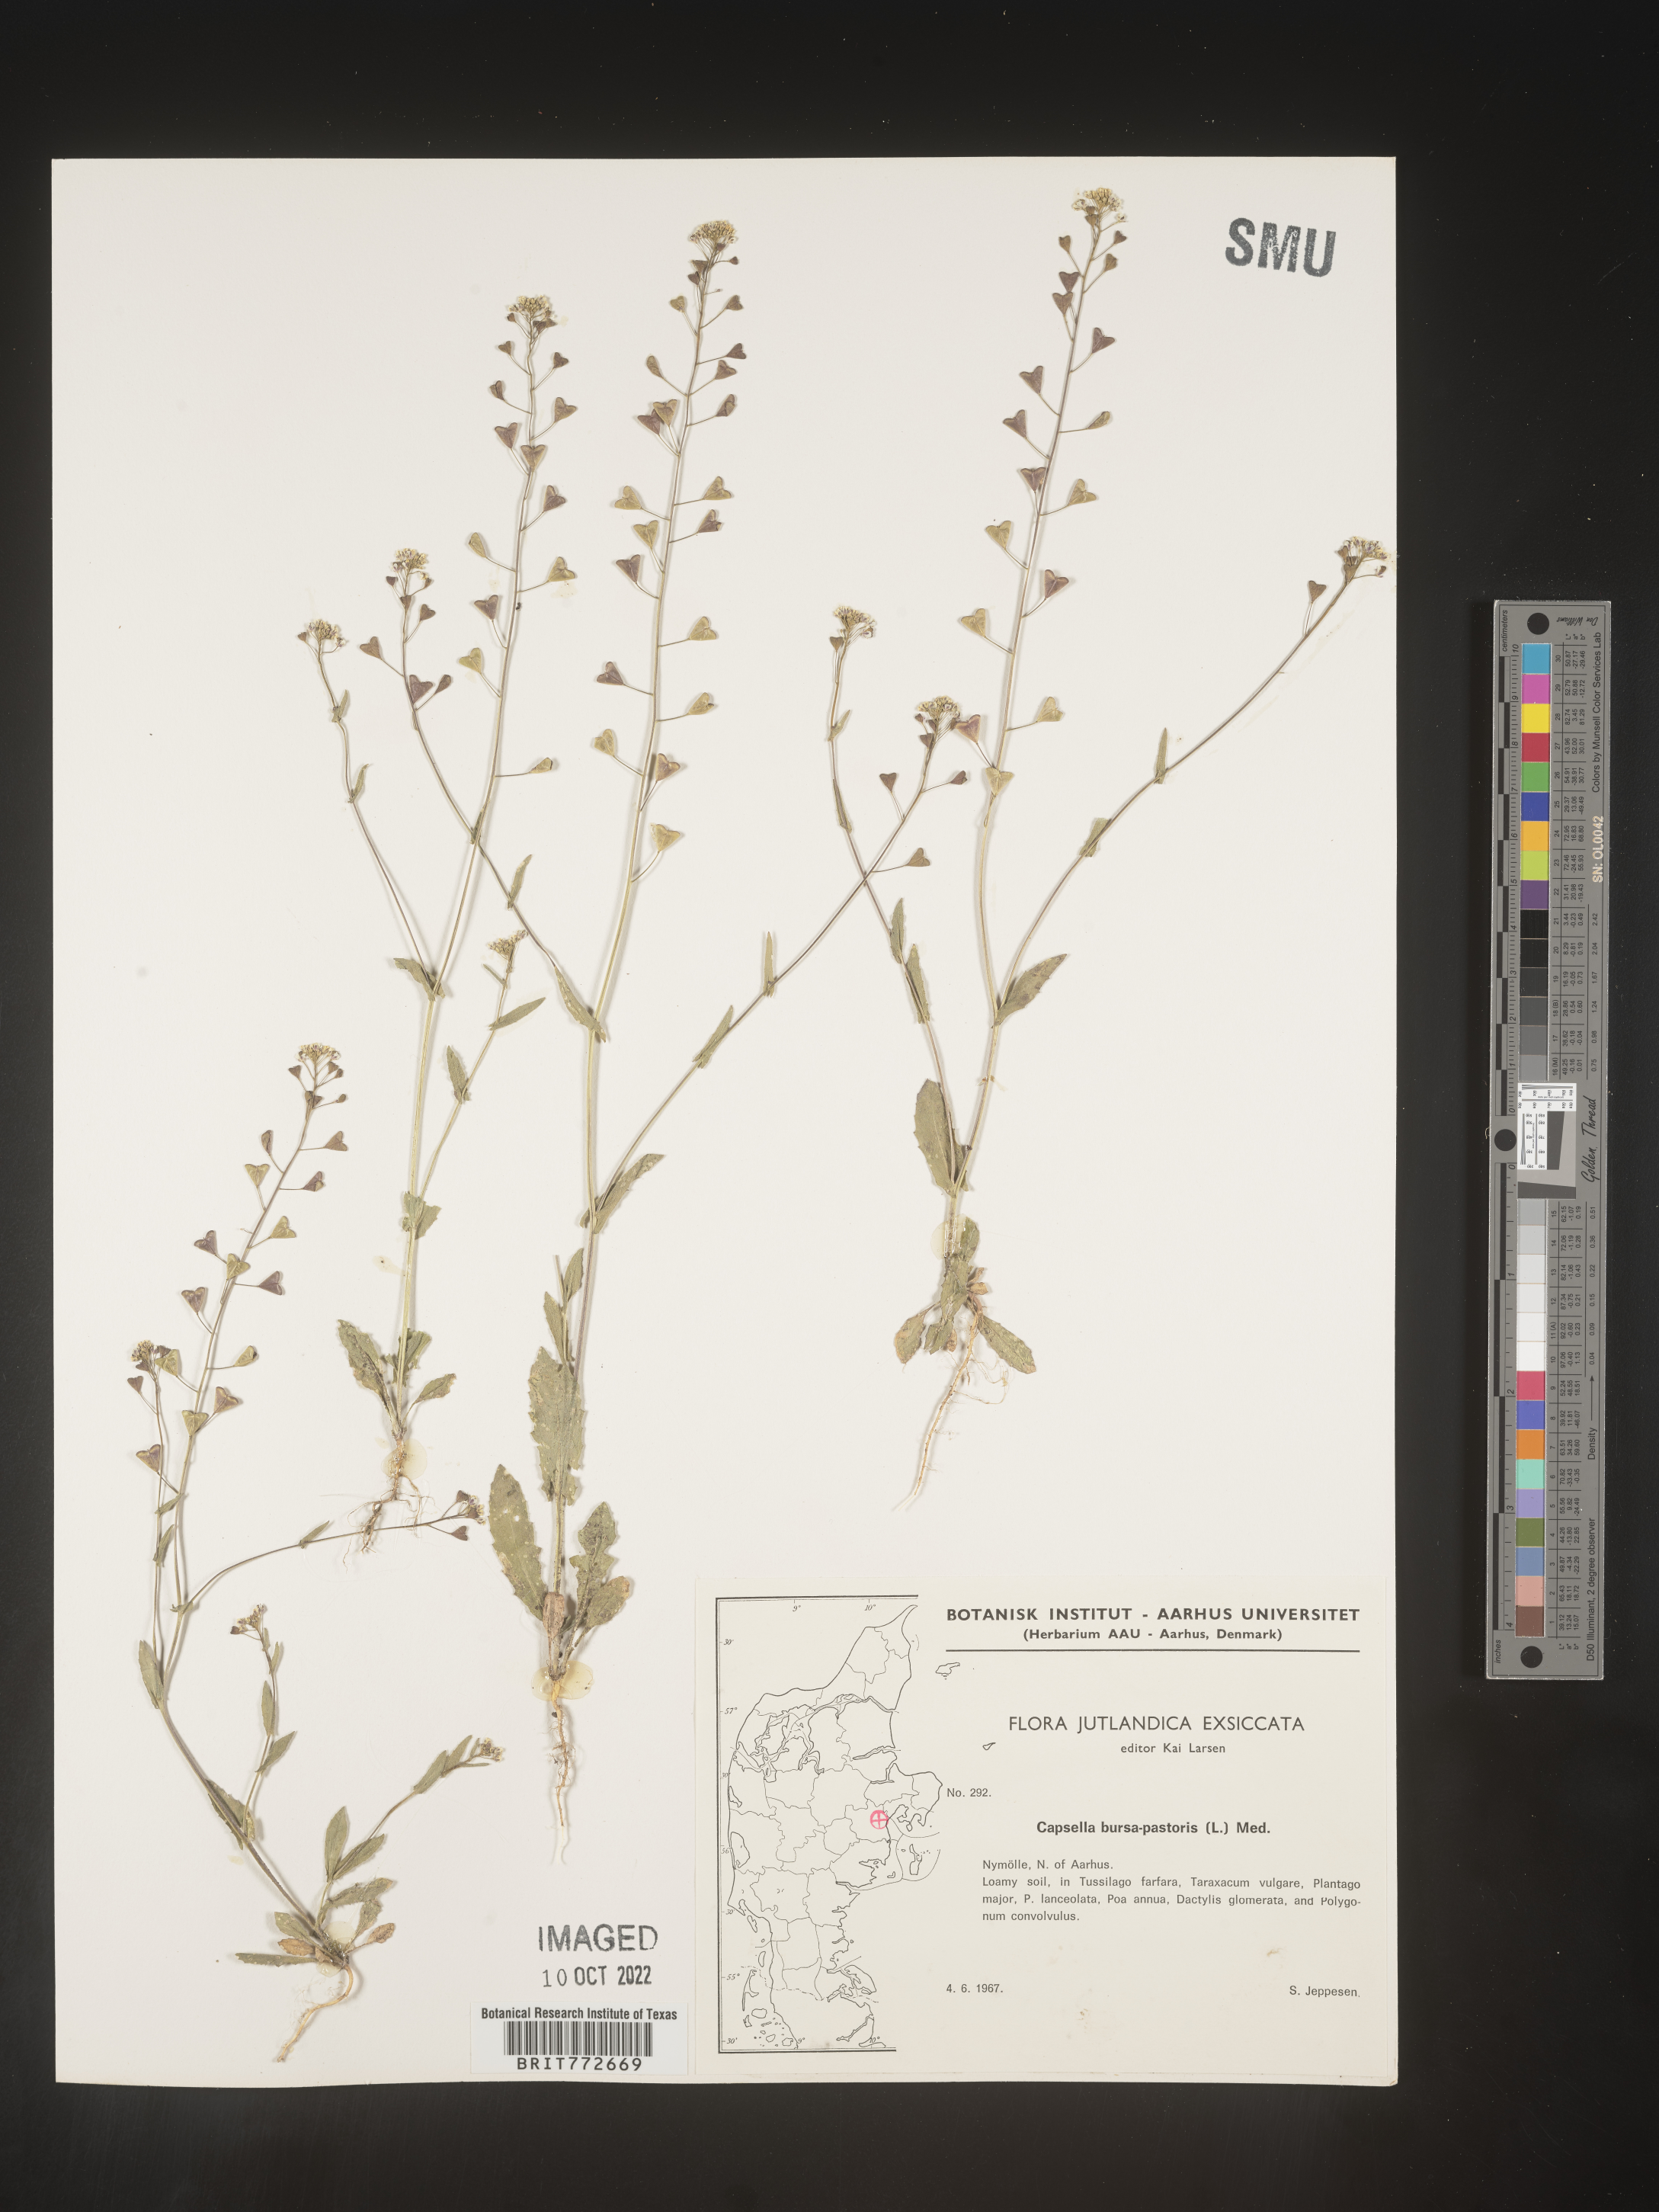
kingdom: Plantae
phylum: Tracheophyta
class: Magnoliopsida
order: Brassicales
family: Brassicaceae
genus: Capsella
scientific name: Capsella
